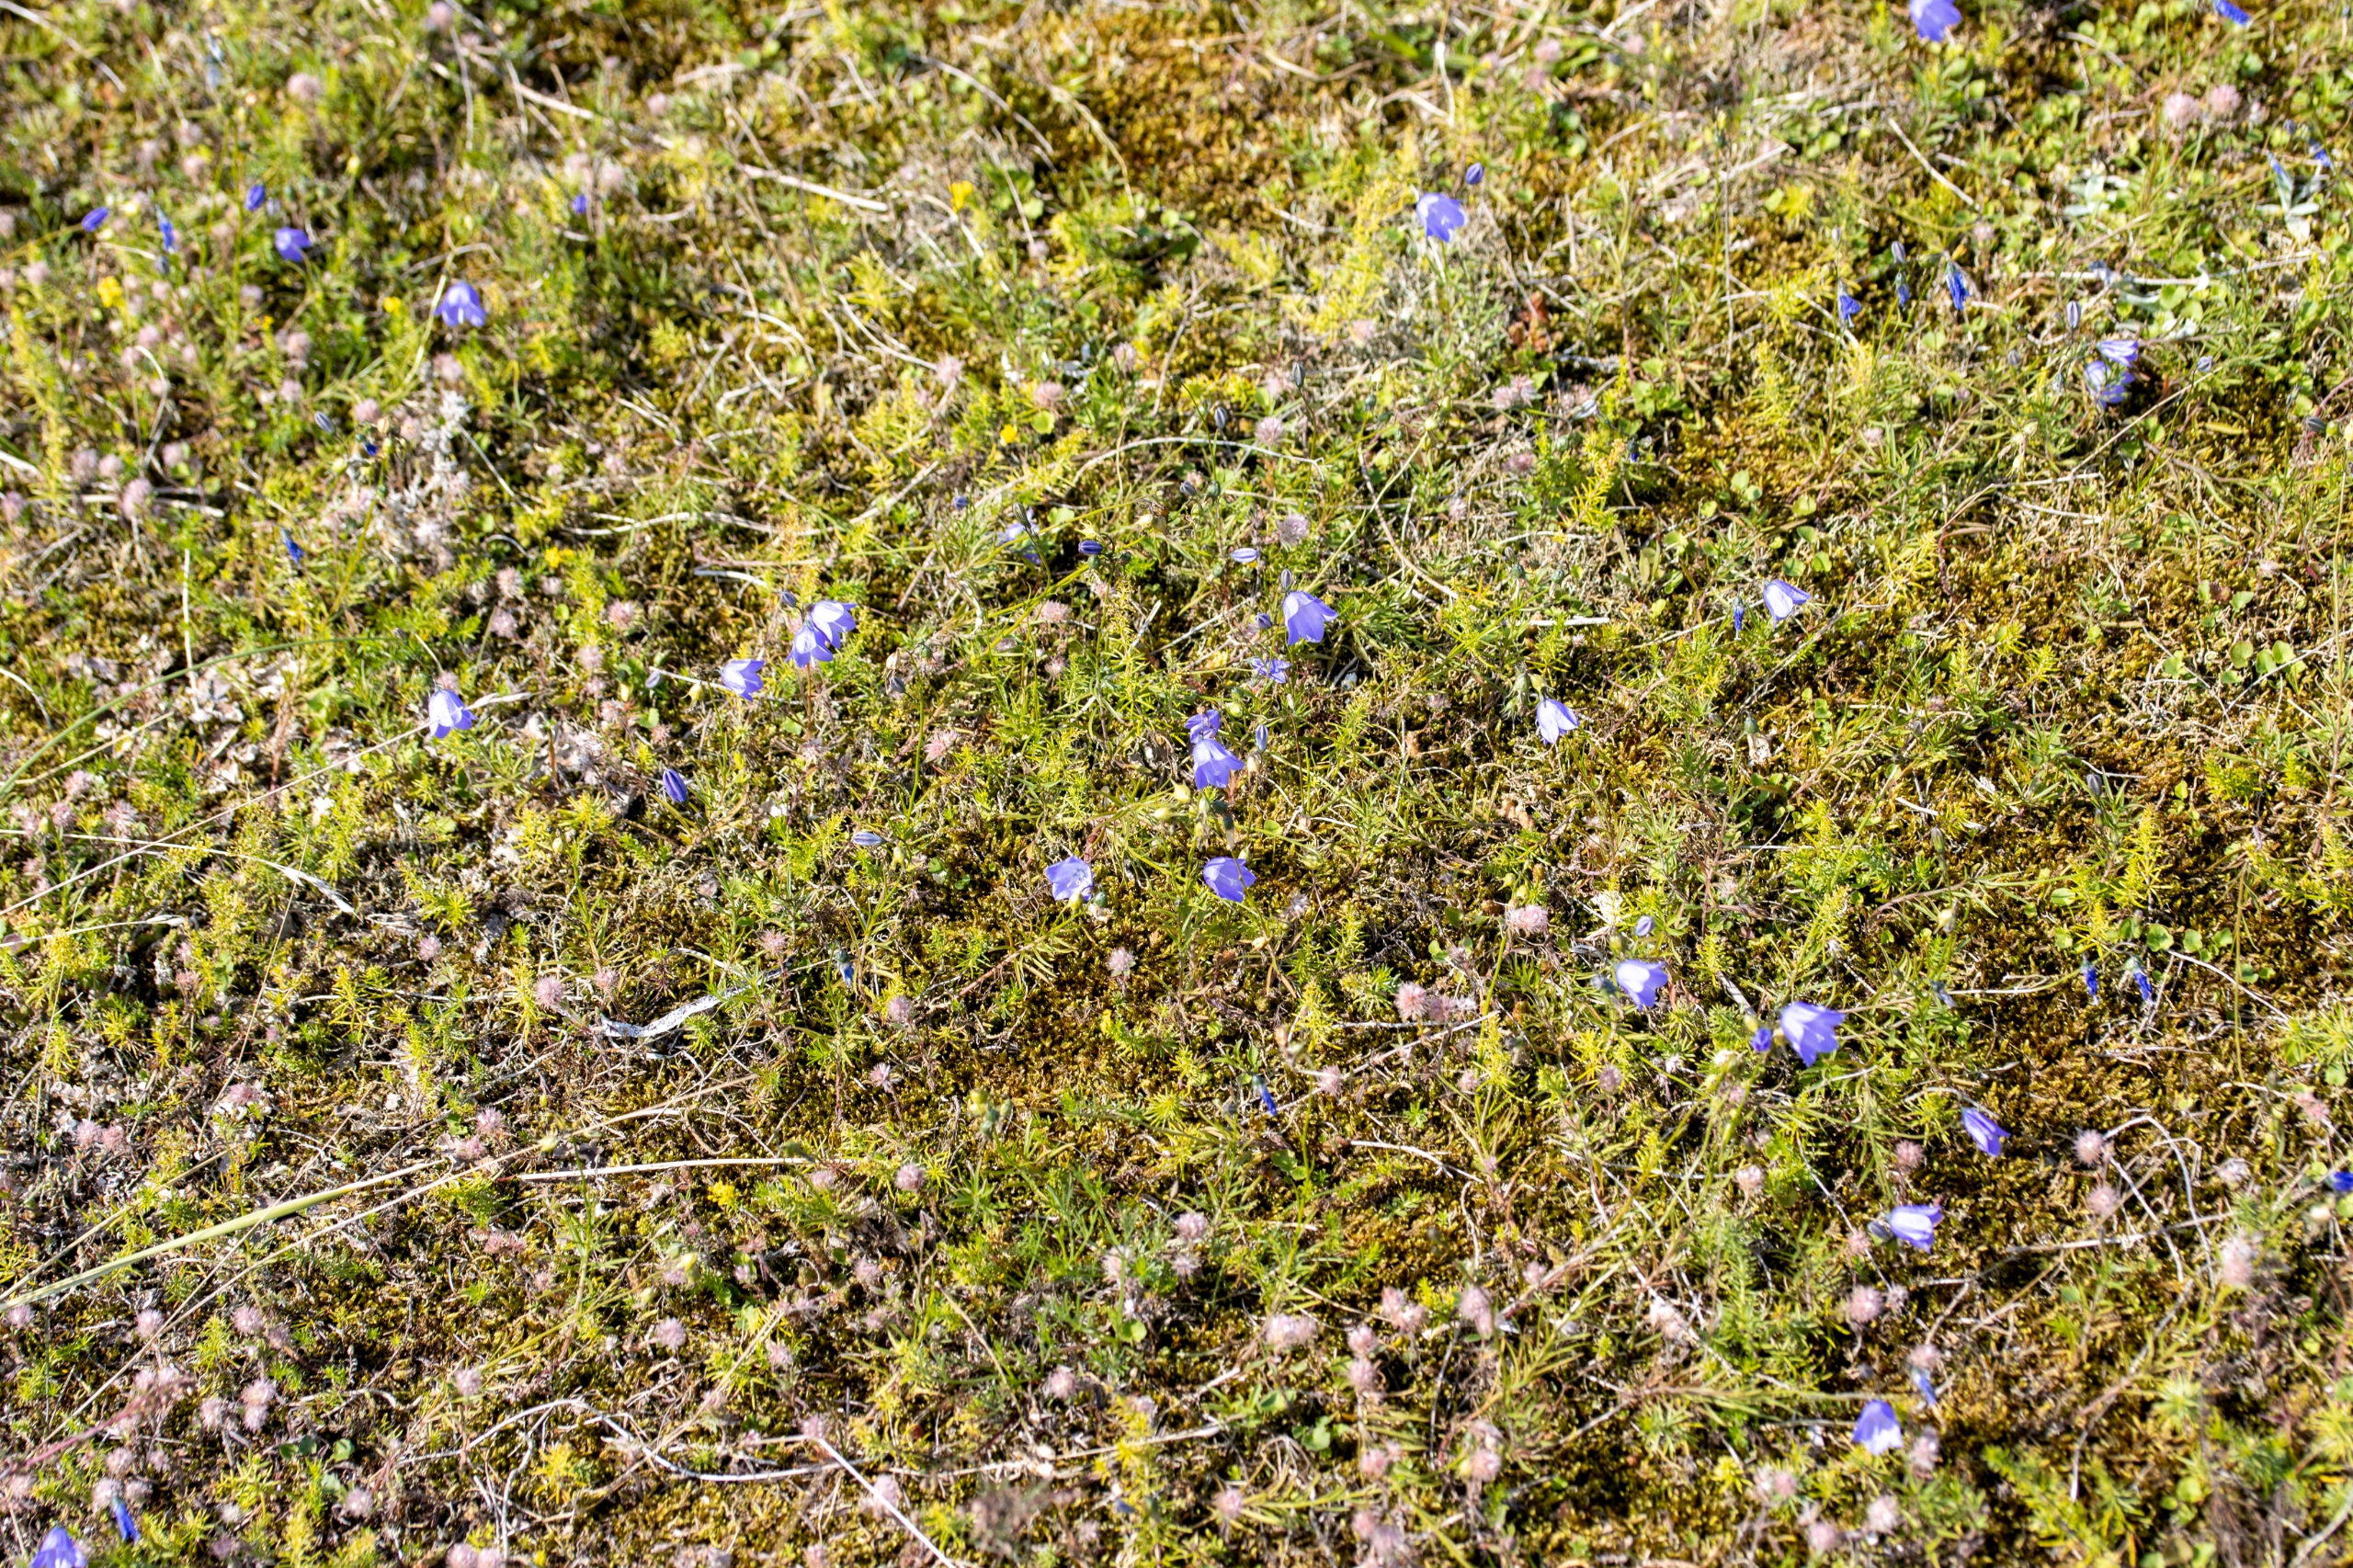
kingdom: Plantae
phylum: Tracheophyta
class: Magnoliopsida
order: Asterales
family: Campanulaceae
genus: Campanula
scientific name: Campanula rotundifolia
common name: Liden klokke
